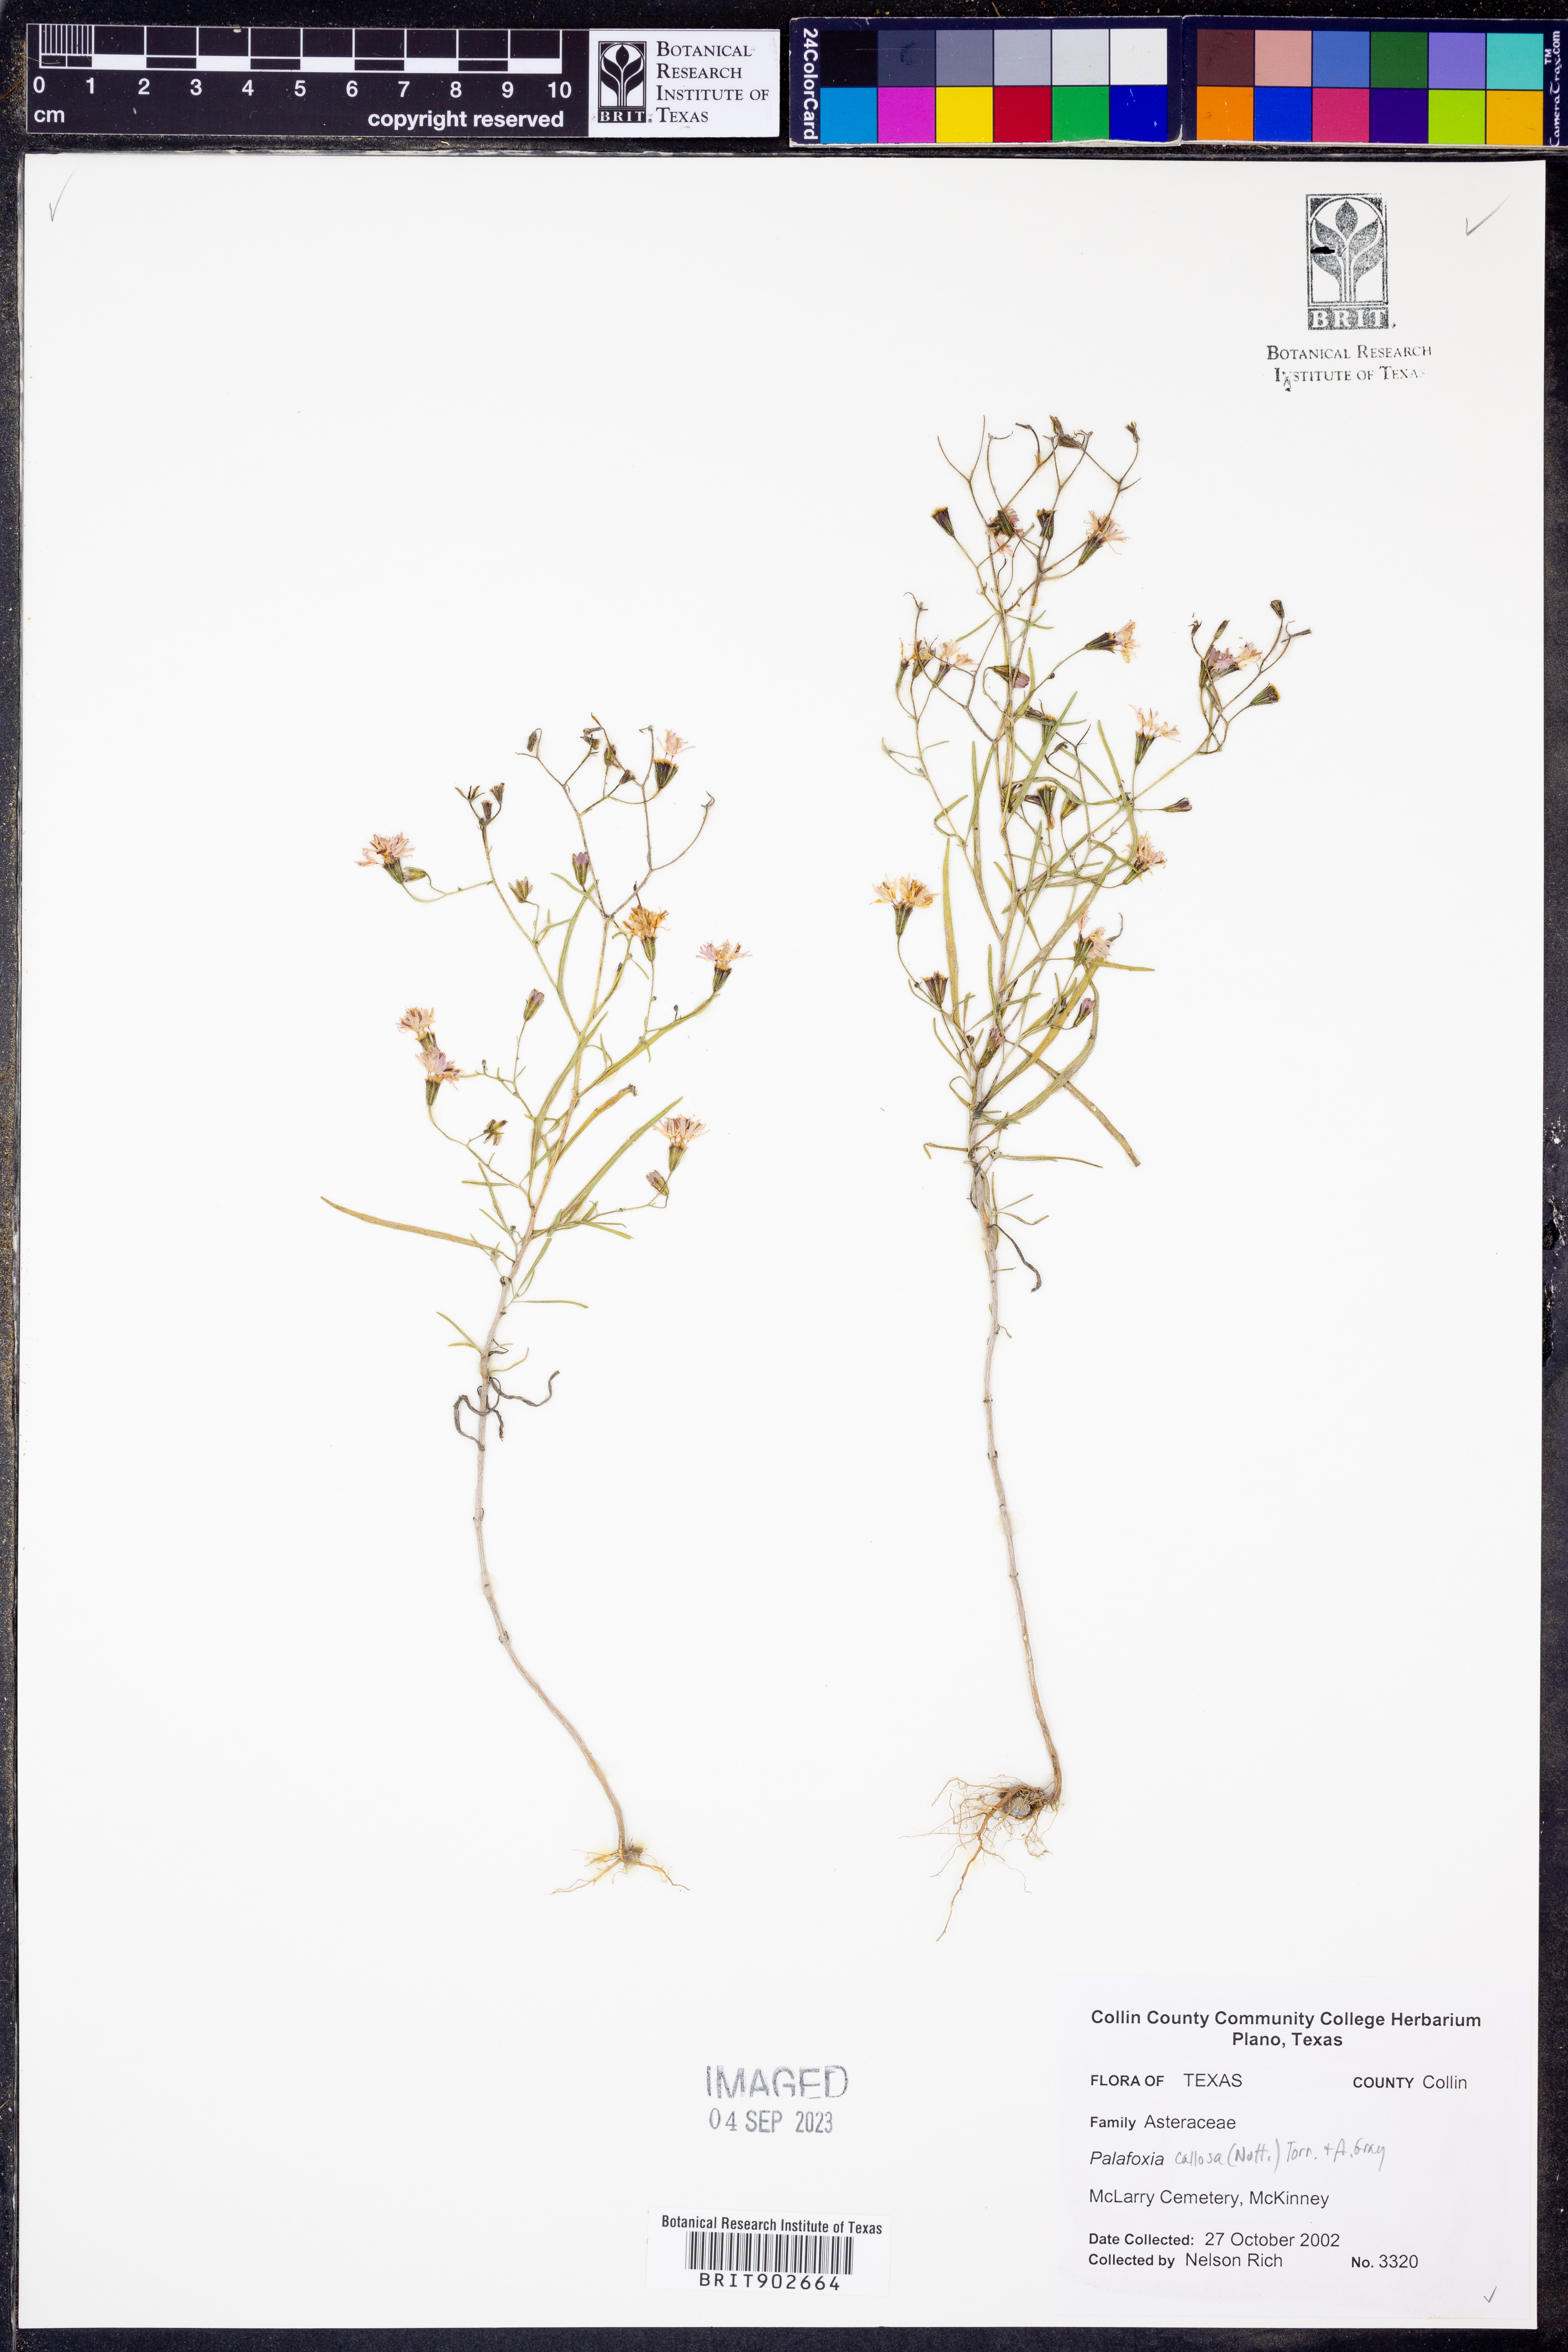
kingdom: Plantae
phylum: Tracheophyta
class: Magnoliopsida
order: Asterales
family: Asteraceae
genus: Palafoxia
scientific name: Palafoxia callosa
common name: Small palafox
